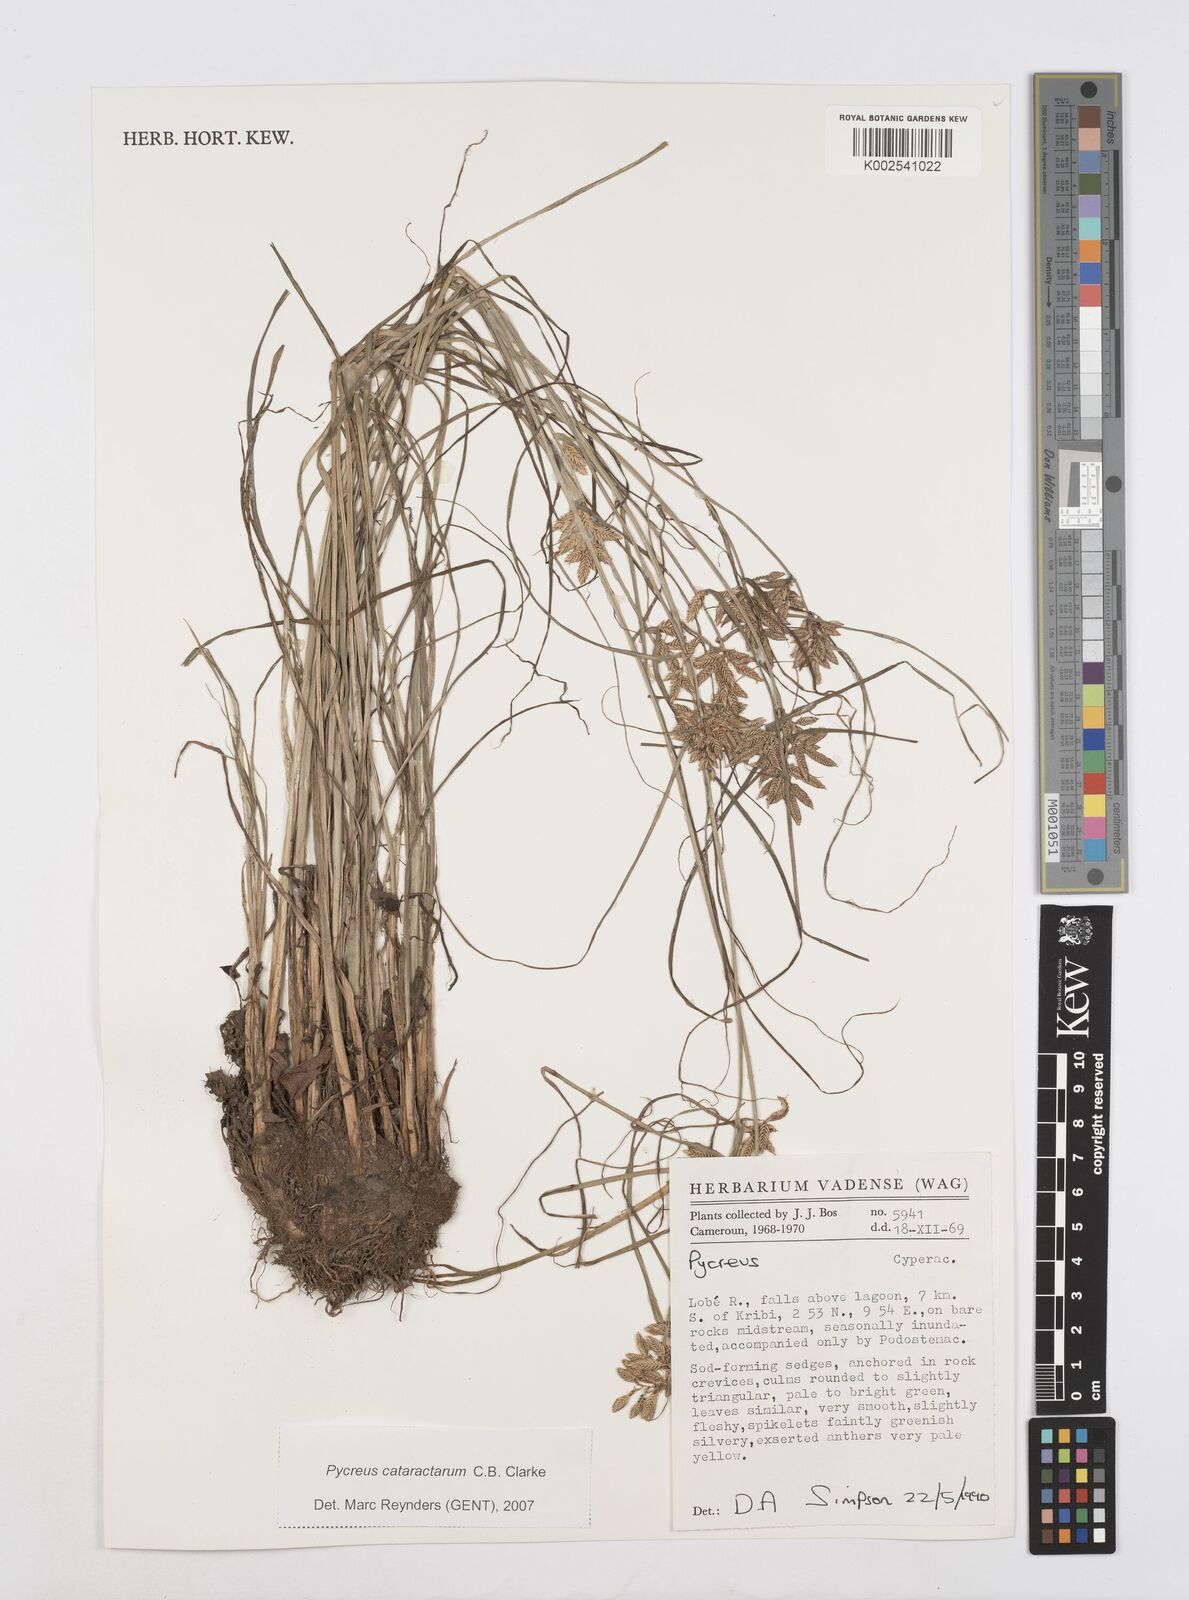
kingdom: Plantae
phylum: Tracheophyta
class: Liliopsida
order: Poales
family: Cyperaceae
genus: Cyperus
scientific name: Cyperus
